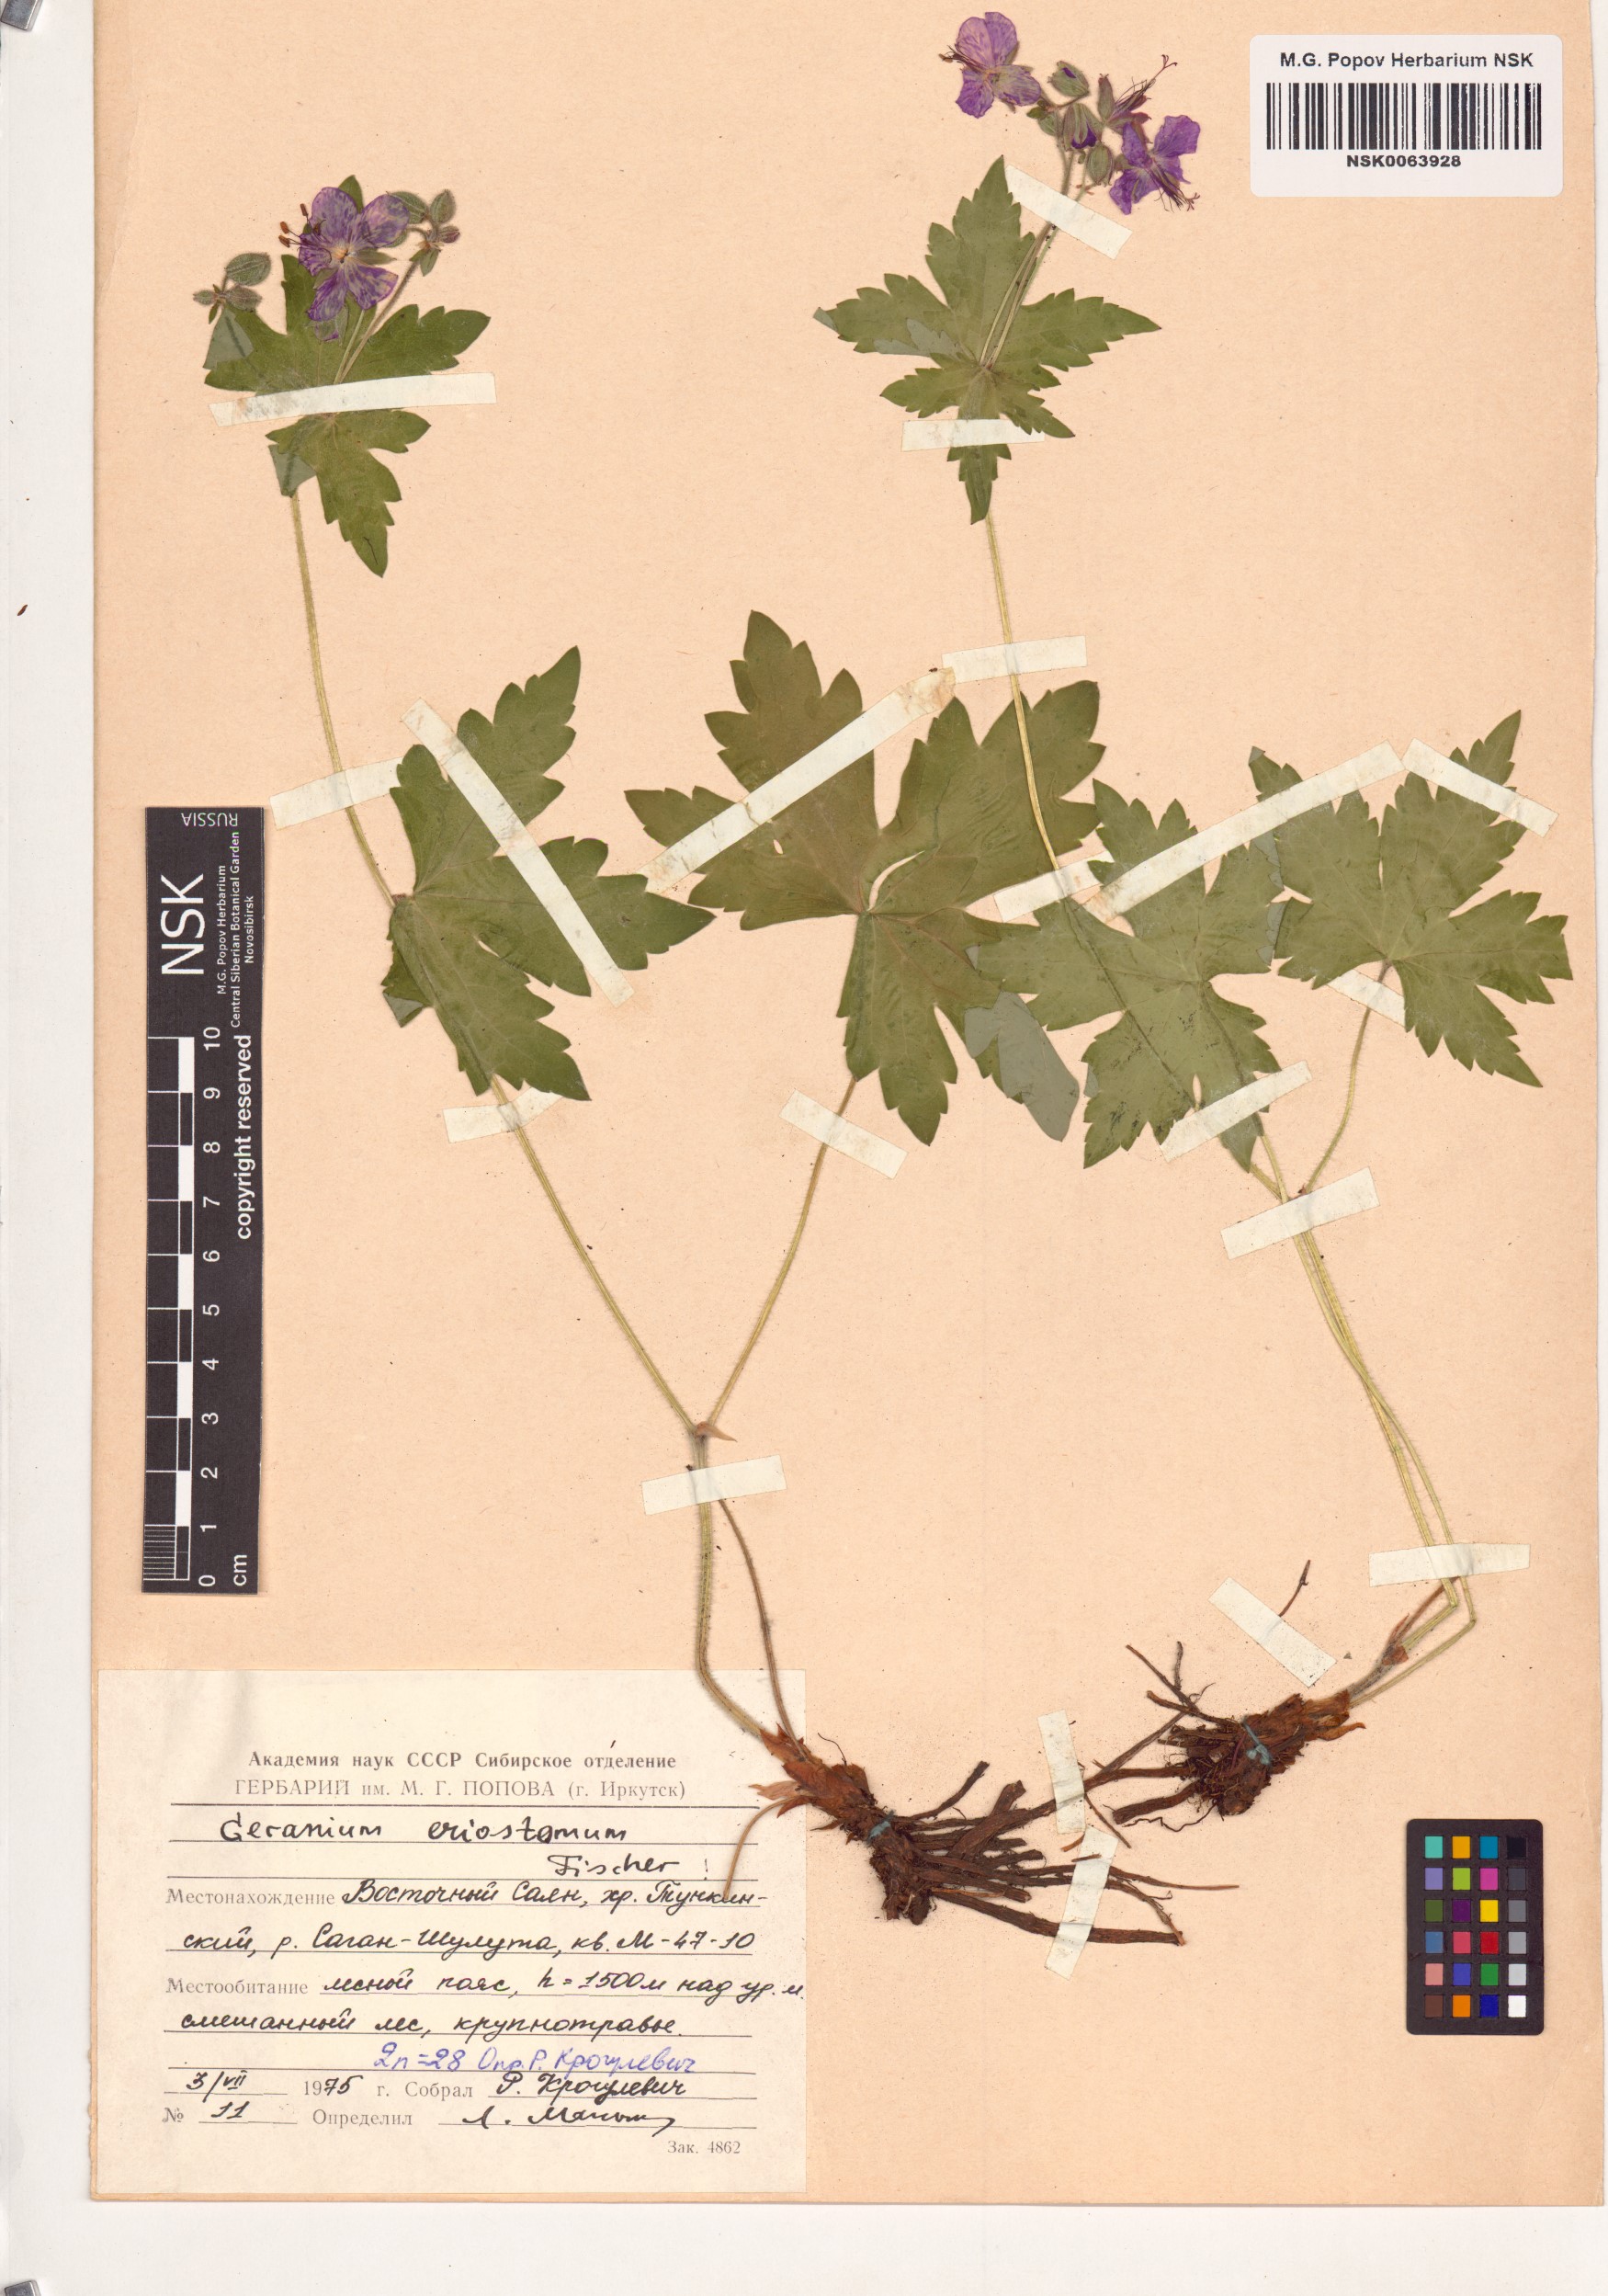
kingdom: Plantae
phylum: Tracheophyta
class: Magnoliopsida
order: Geraniales
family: Geraniaceae
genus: Geranium
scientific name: Geranium platyanthum
